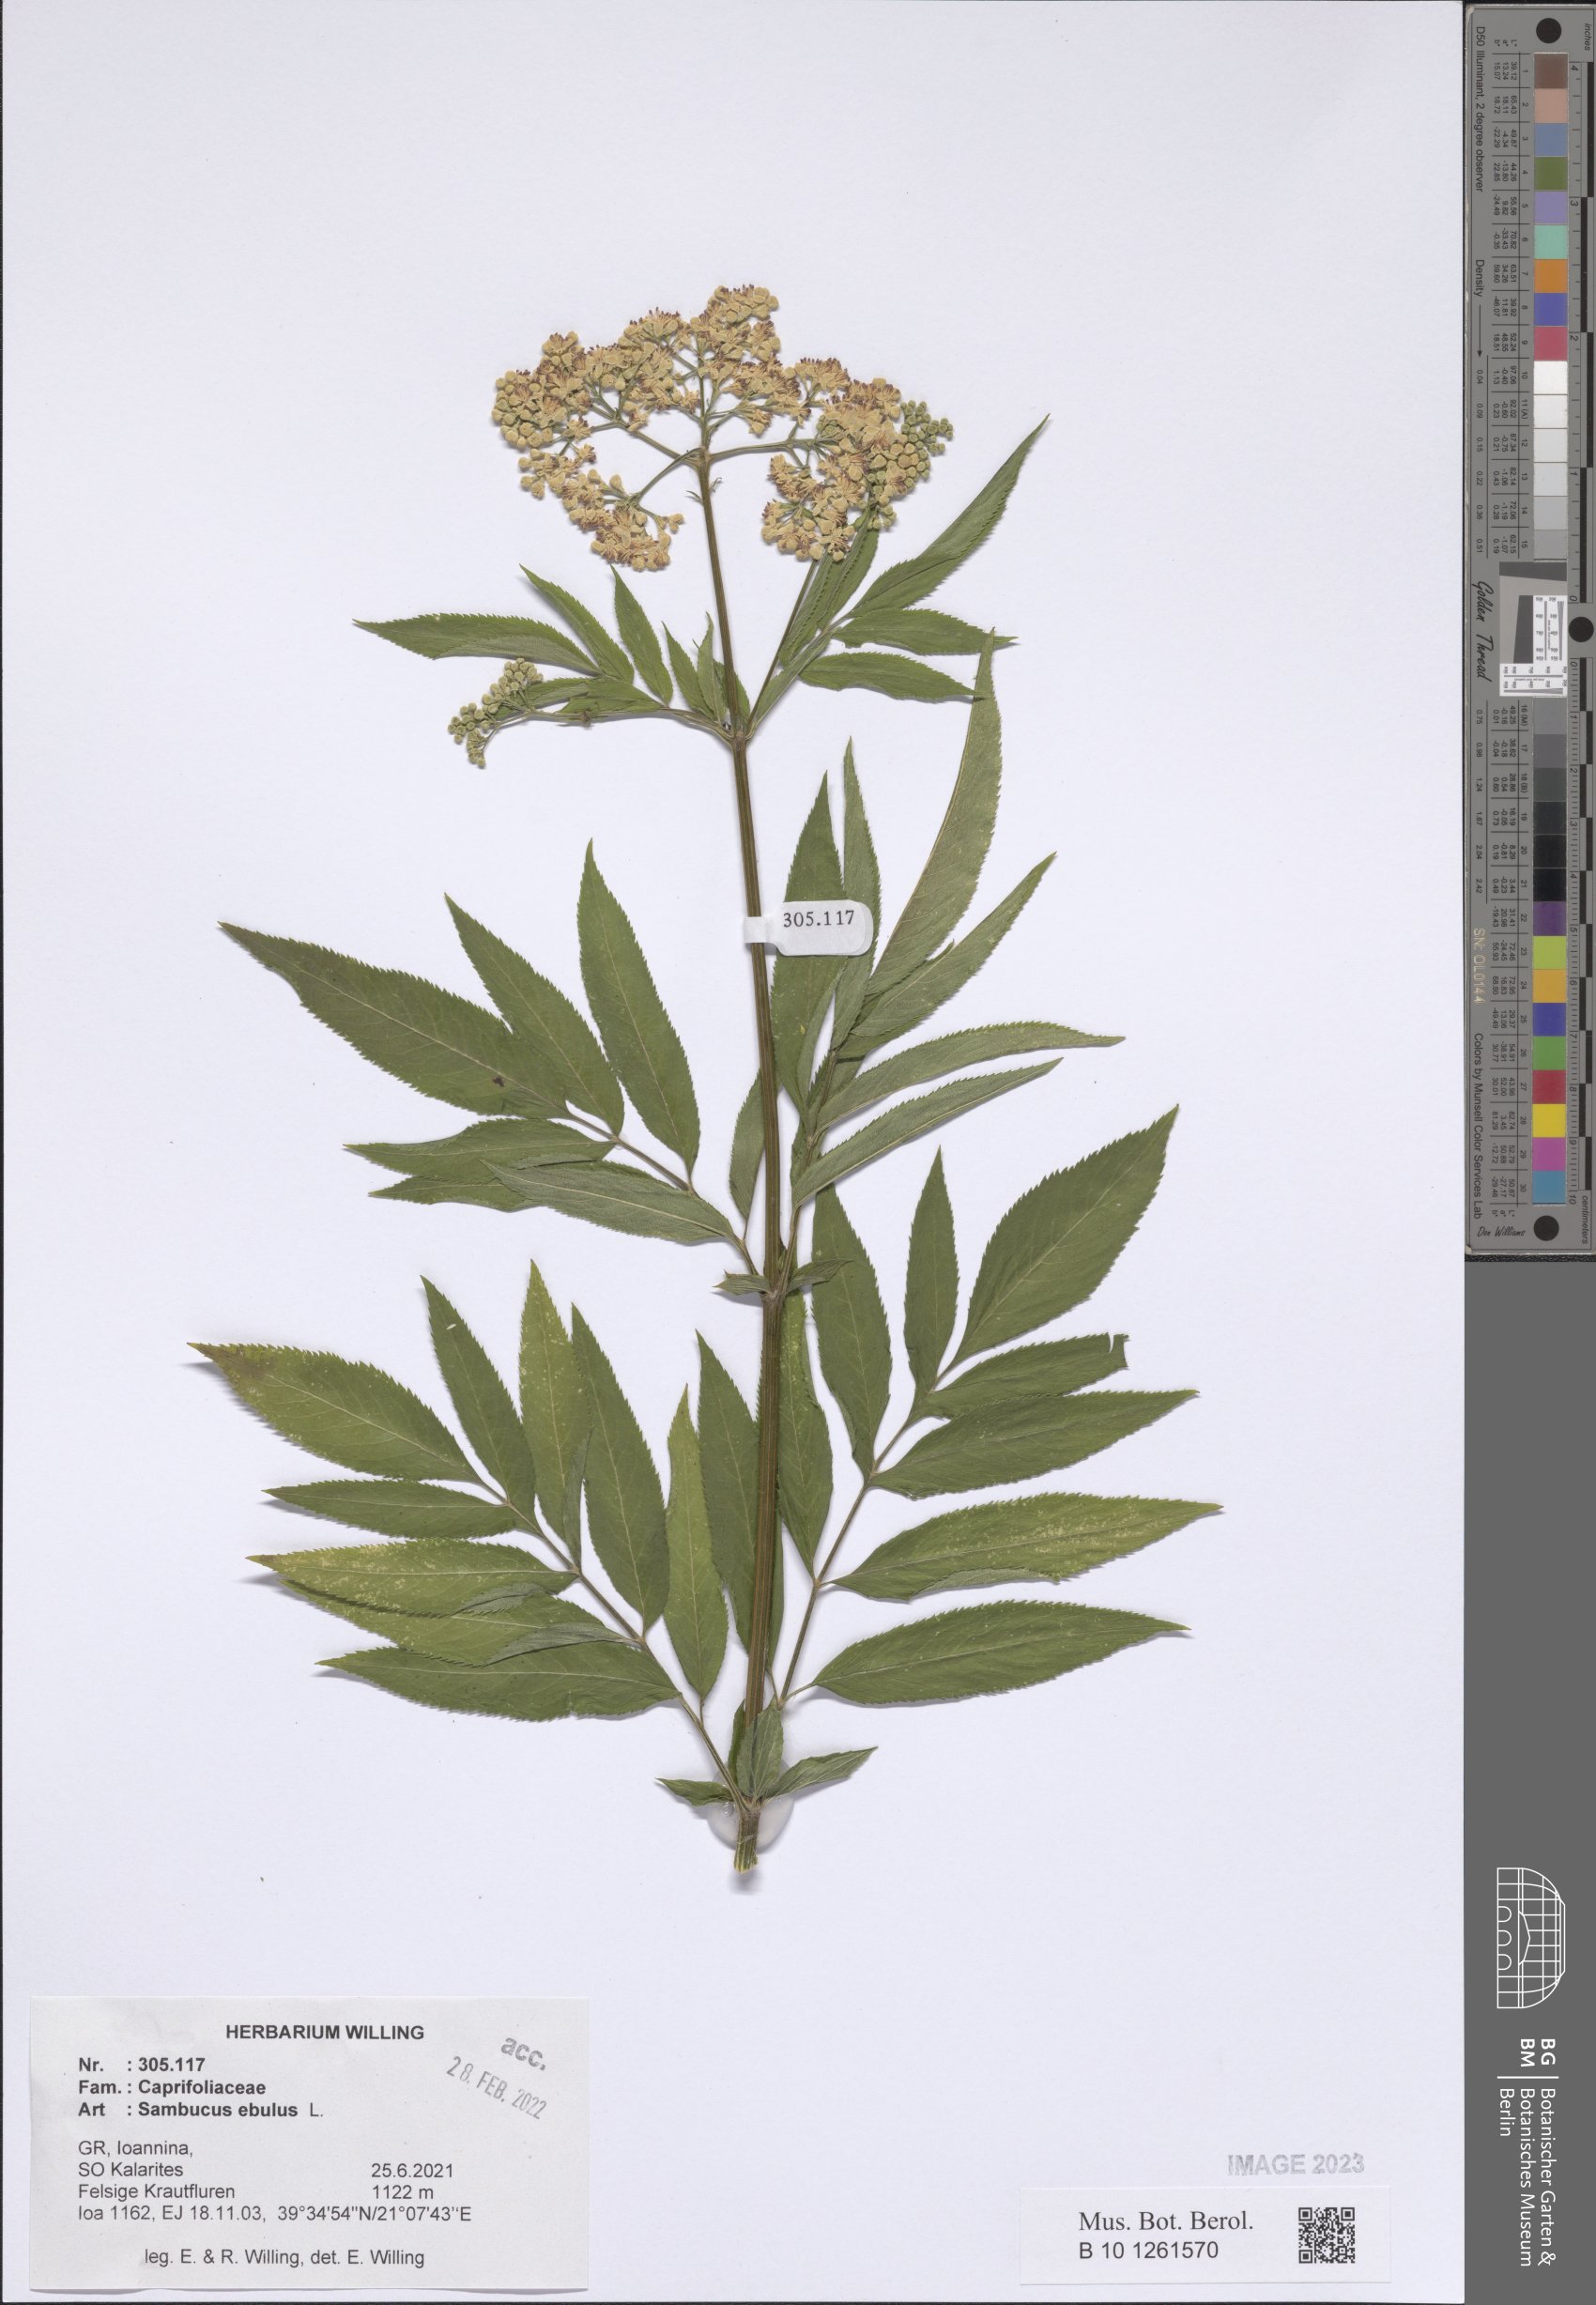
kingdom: Plantae
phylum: Tracheophyta
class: Magnoliopsida
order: Dipsacales
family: Viburnaceae
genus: Sambucus
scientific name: Sambucus ebulus
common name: Dwarf elder
